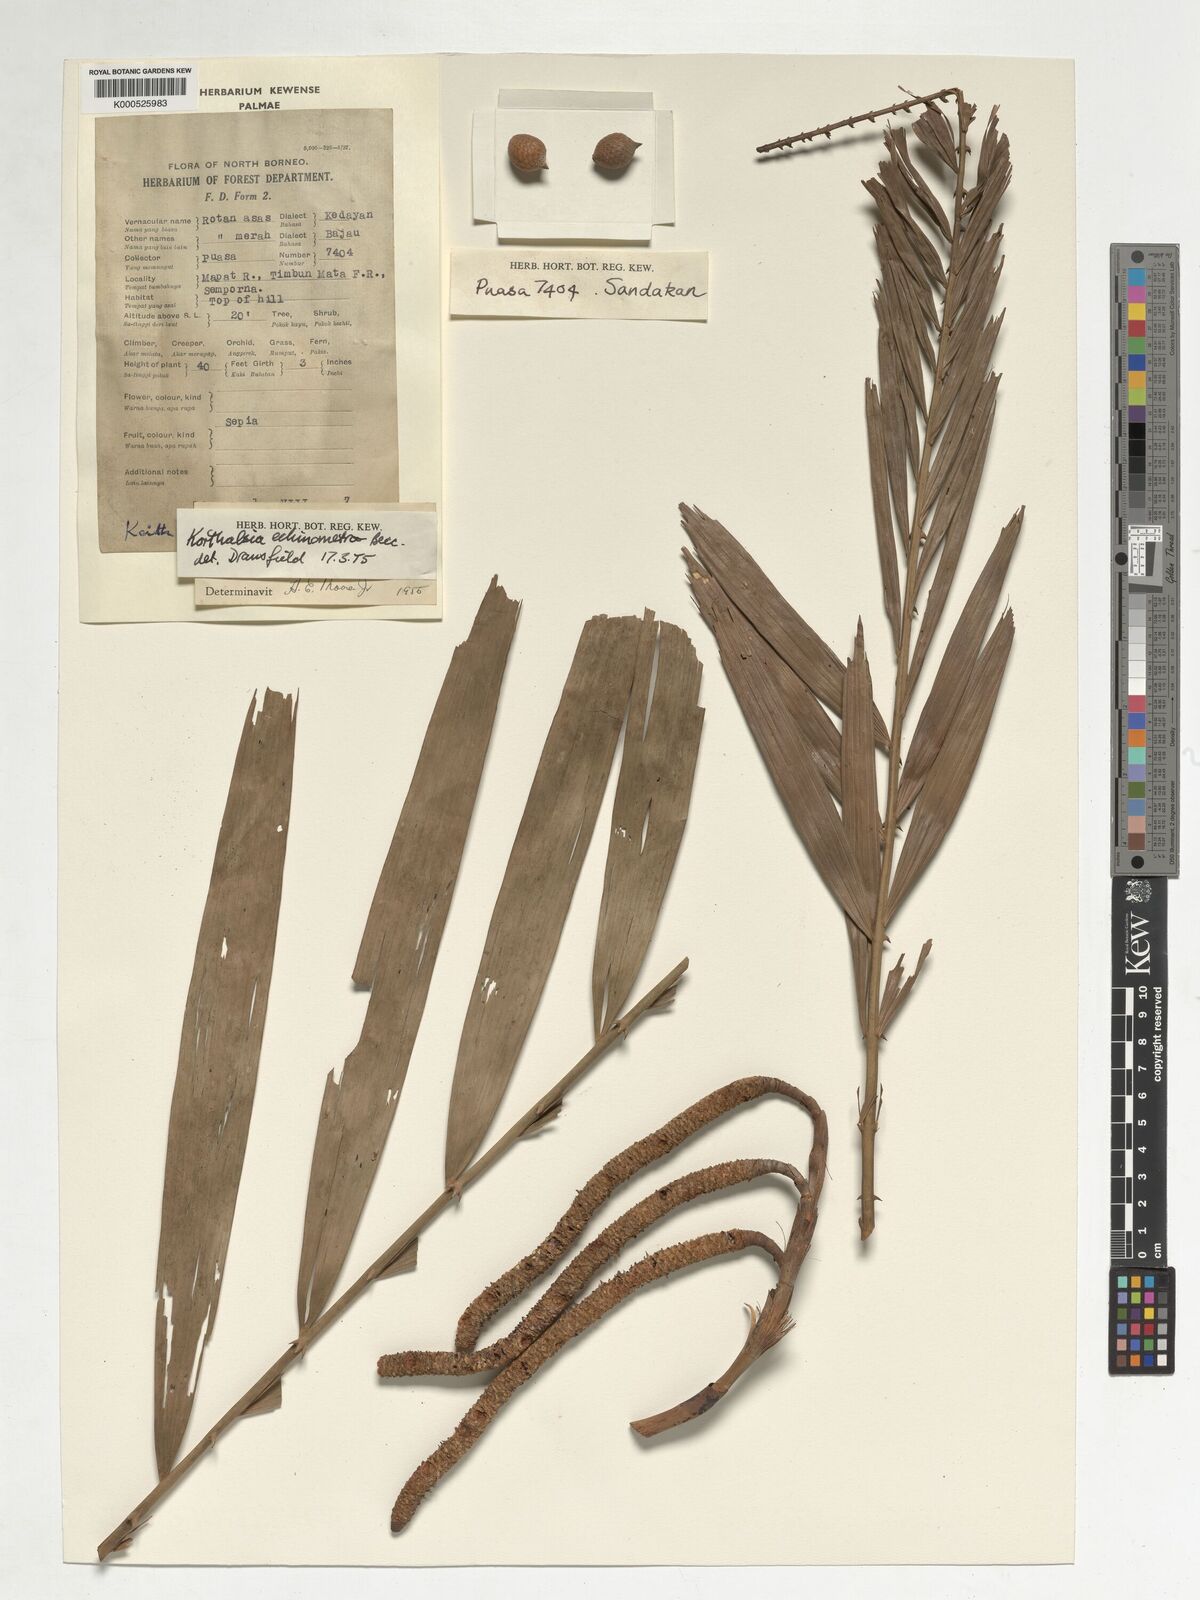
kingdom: Plantae
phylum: Tracheophyta
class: Liliopsida
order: Arecales
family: Arecaceae
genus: Korthalsia
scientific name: Korthalsia echinometra
